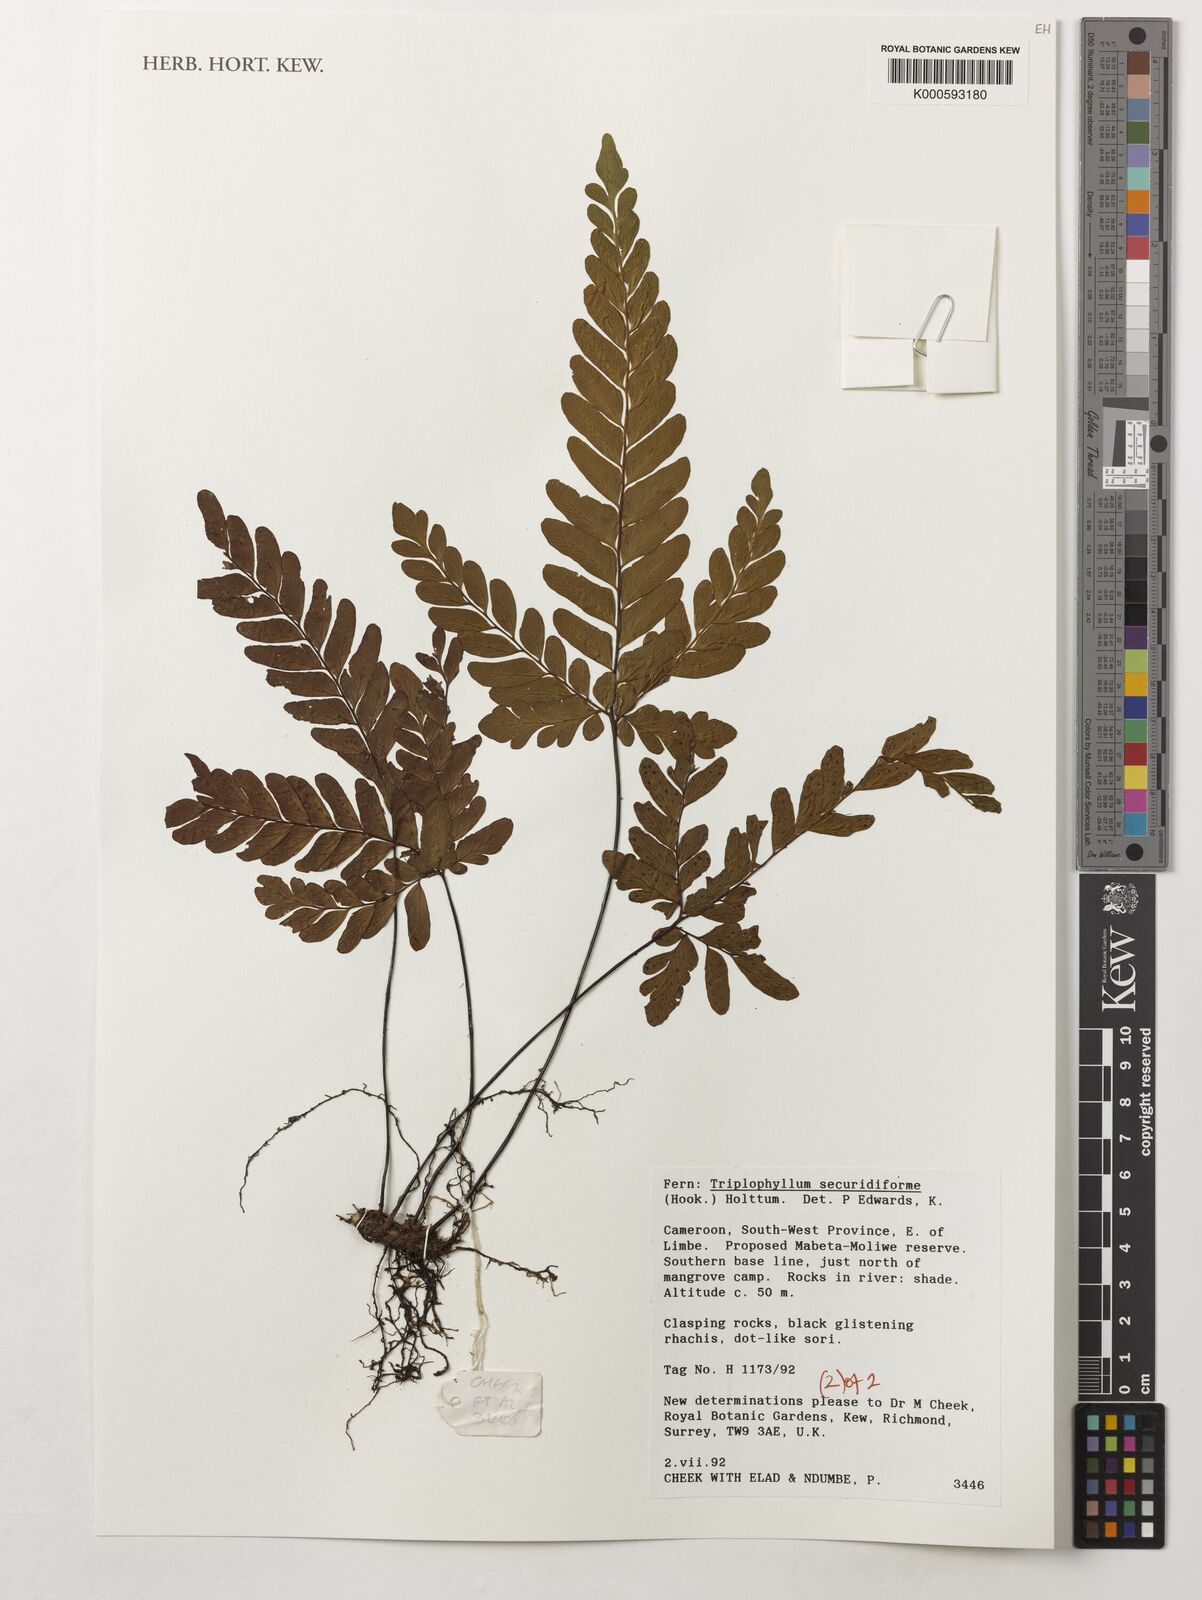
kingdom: Plantae
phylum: Tracheophyta
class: Polypodiopsida
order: Polypodiales
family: Tectariaceae
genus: Triplophyllum
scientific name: Triplophyllum securidiforme
